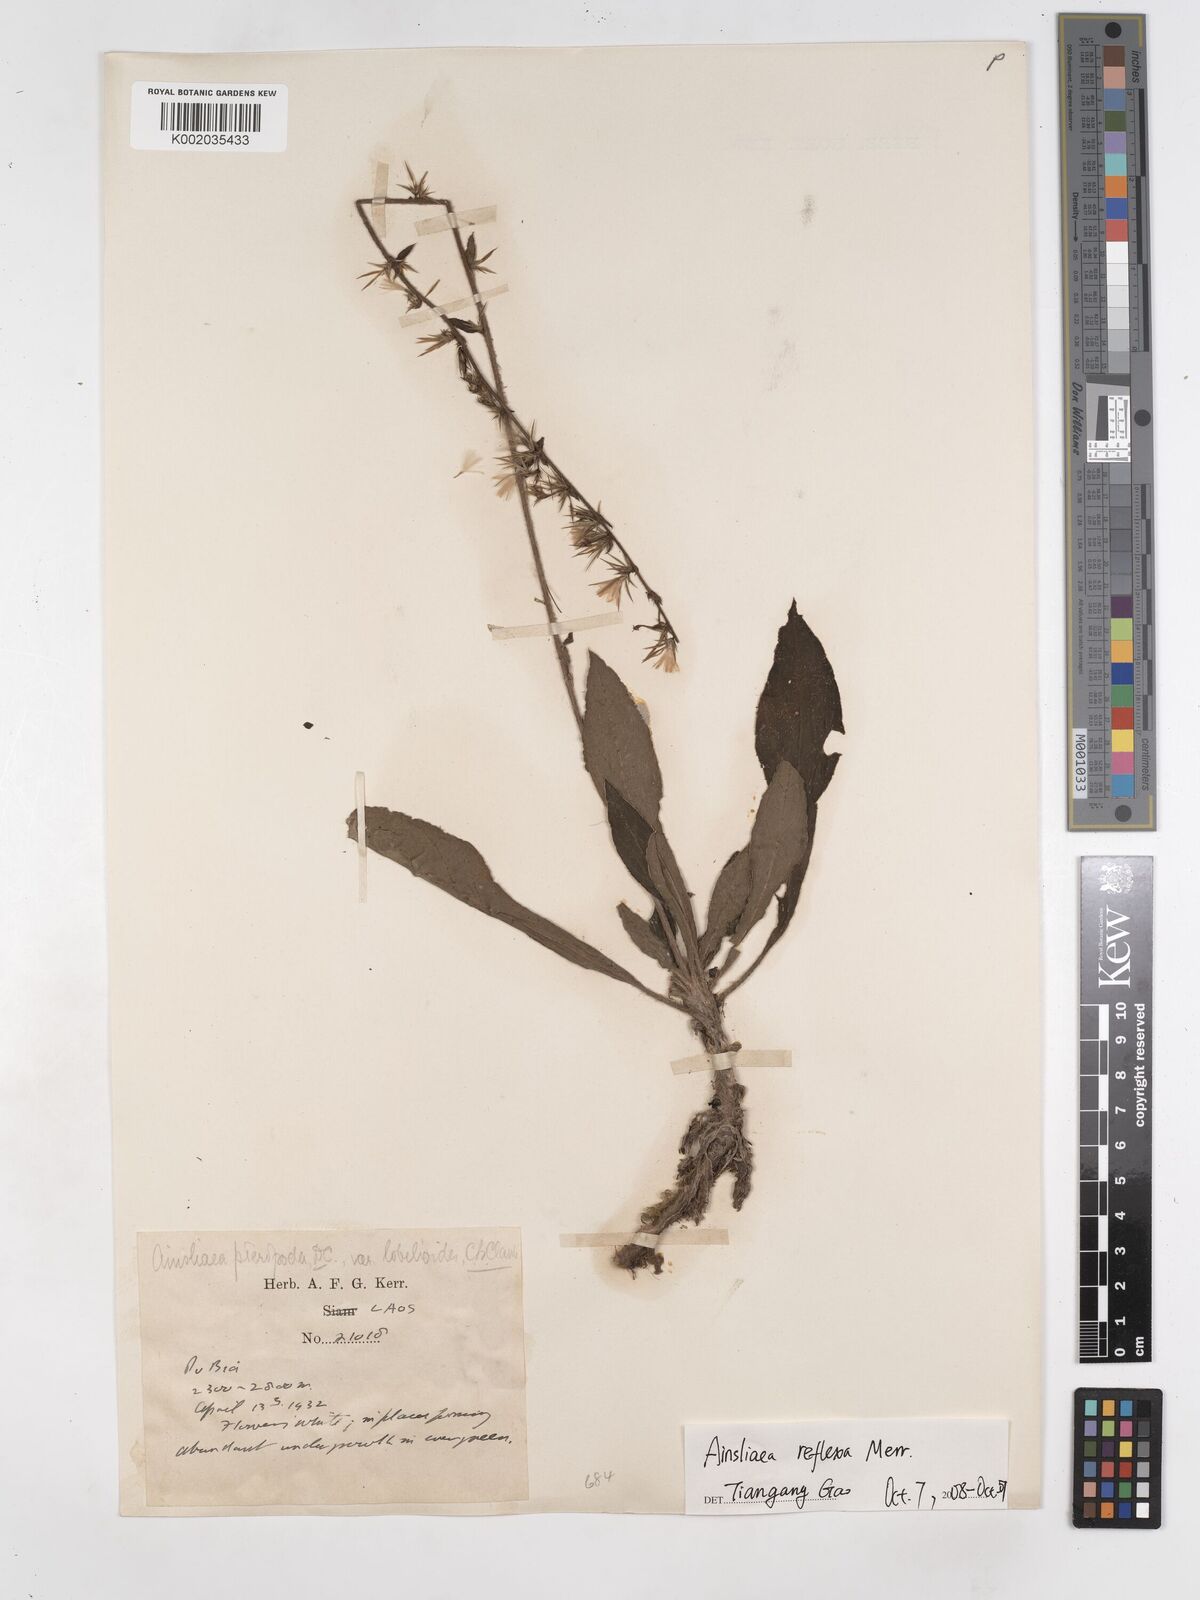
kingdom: Plantae
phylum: Tracheophyta
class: Magnoliopsida
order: Asterales
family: Asteraceae
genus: Ainsliaea
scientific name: Ainsliaea reflexa
